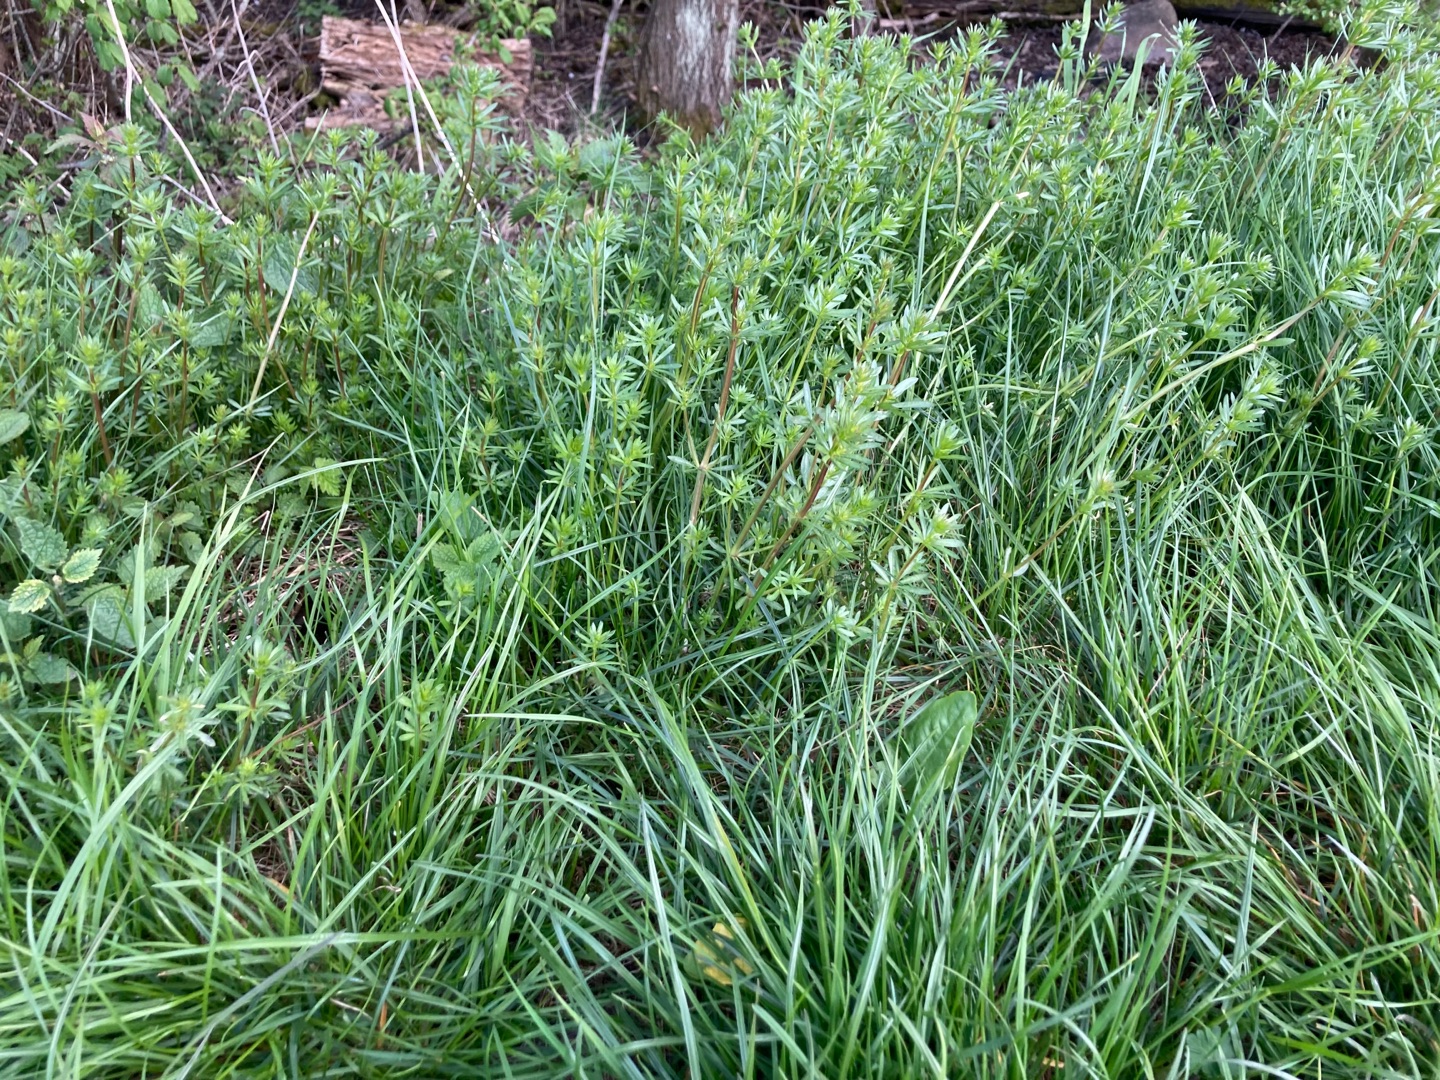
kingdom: Plantae
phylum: Tracheophyta
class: Magnoliopsida
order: Gentianales
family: Rubiaceae
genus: Galium
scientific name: Galium mollugo
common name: Hvid snerre
